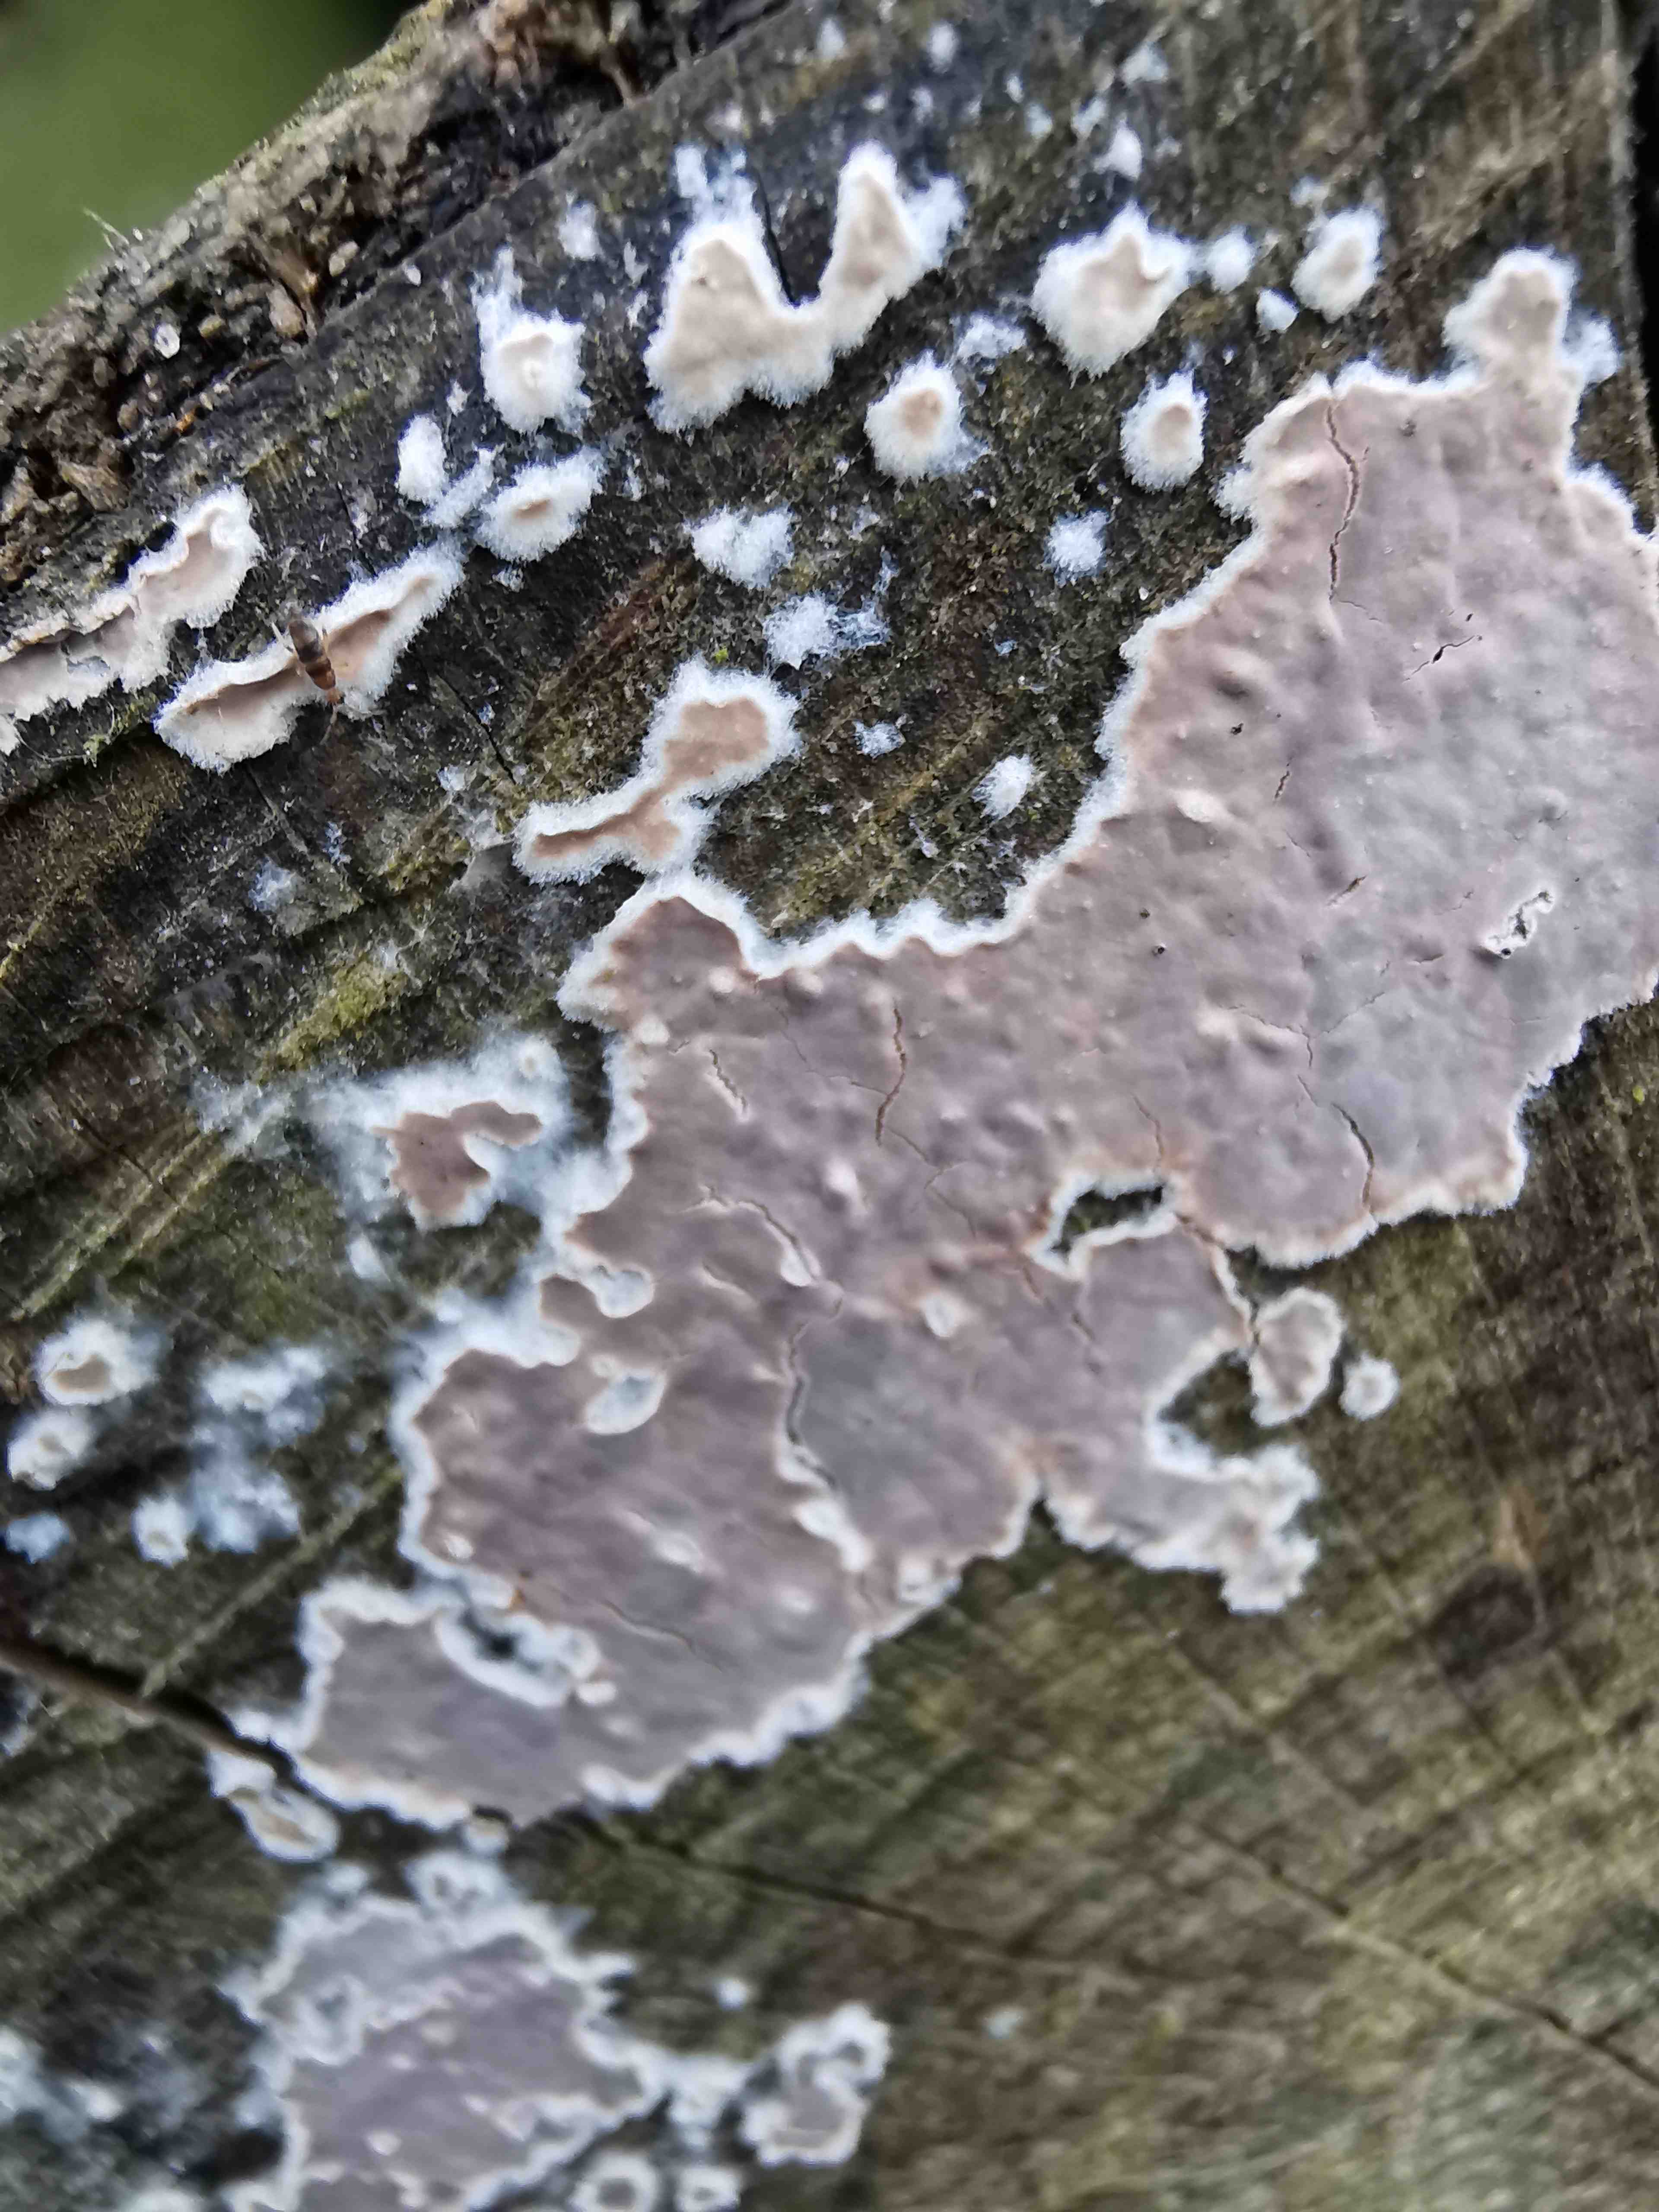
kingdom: Fungi
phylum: Basidiomycota
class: Agaricomycetes
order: Agaricales
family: Physalacriaceae
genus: Cylindrobasidium
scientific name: Cylindrobasidium evolvens
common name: sprækkehinde
